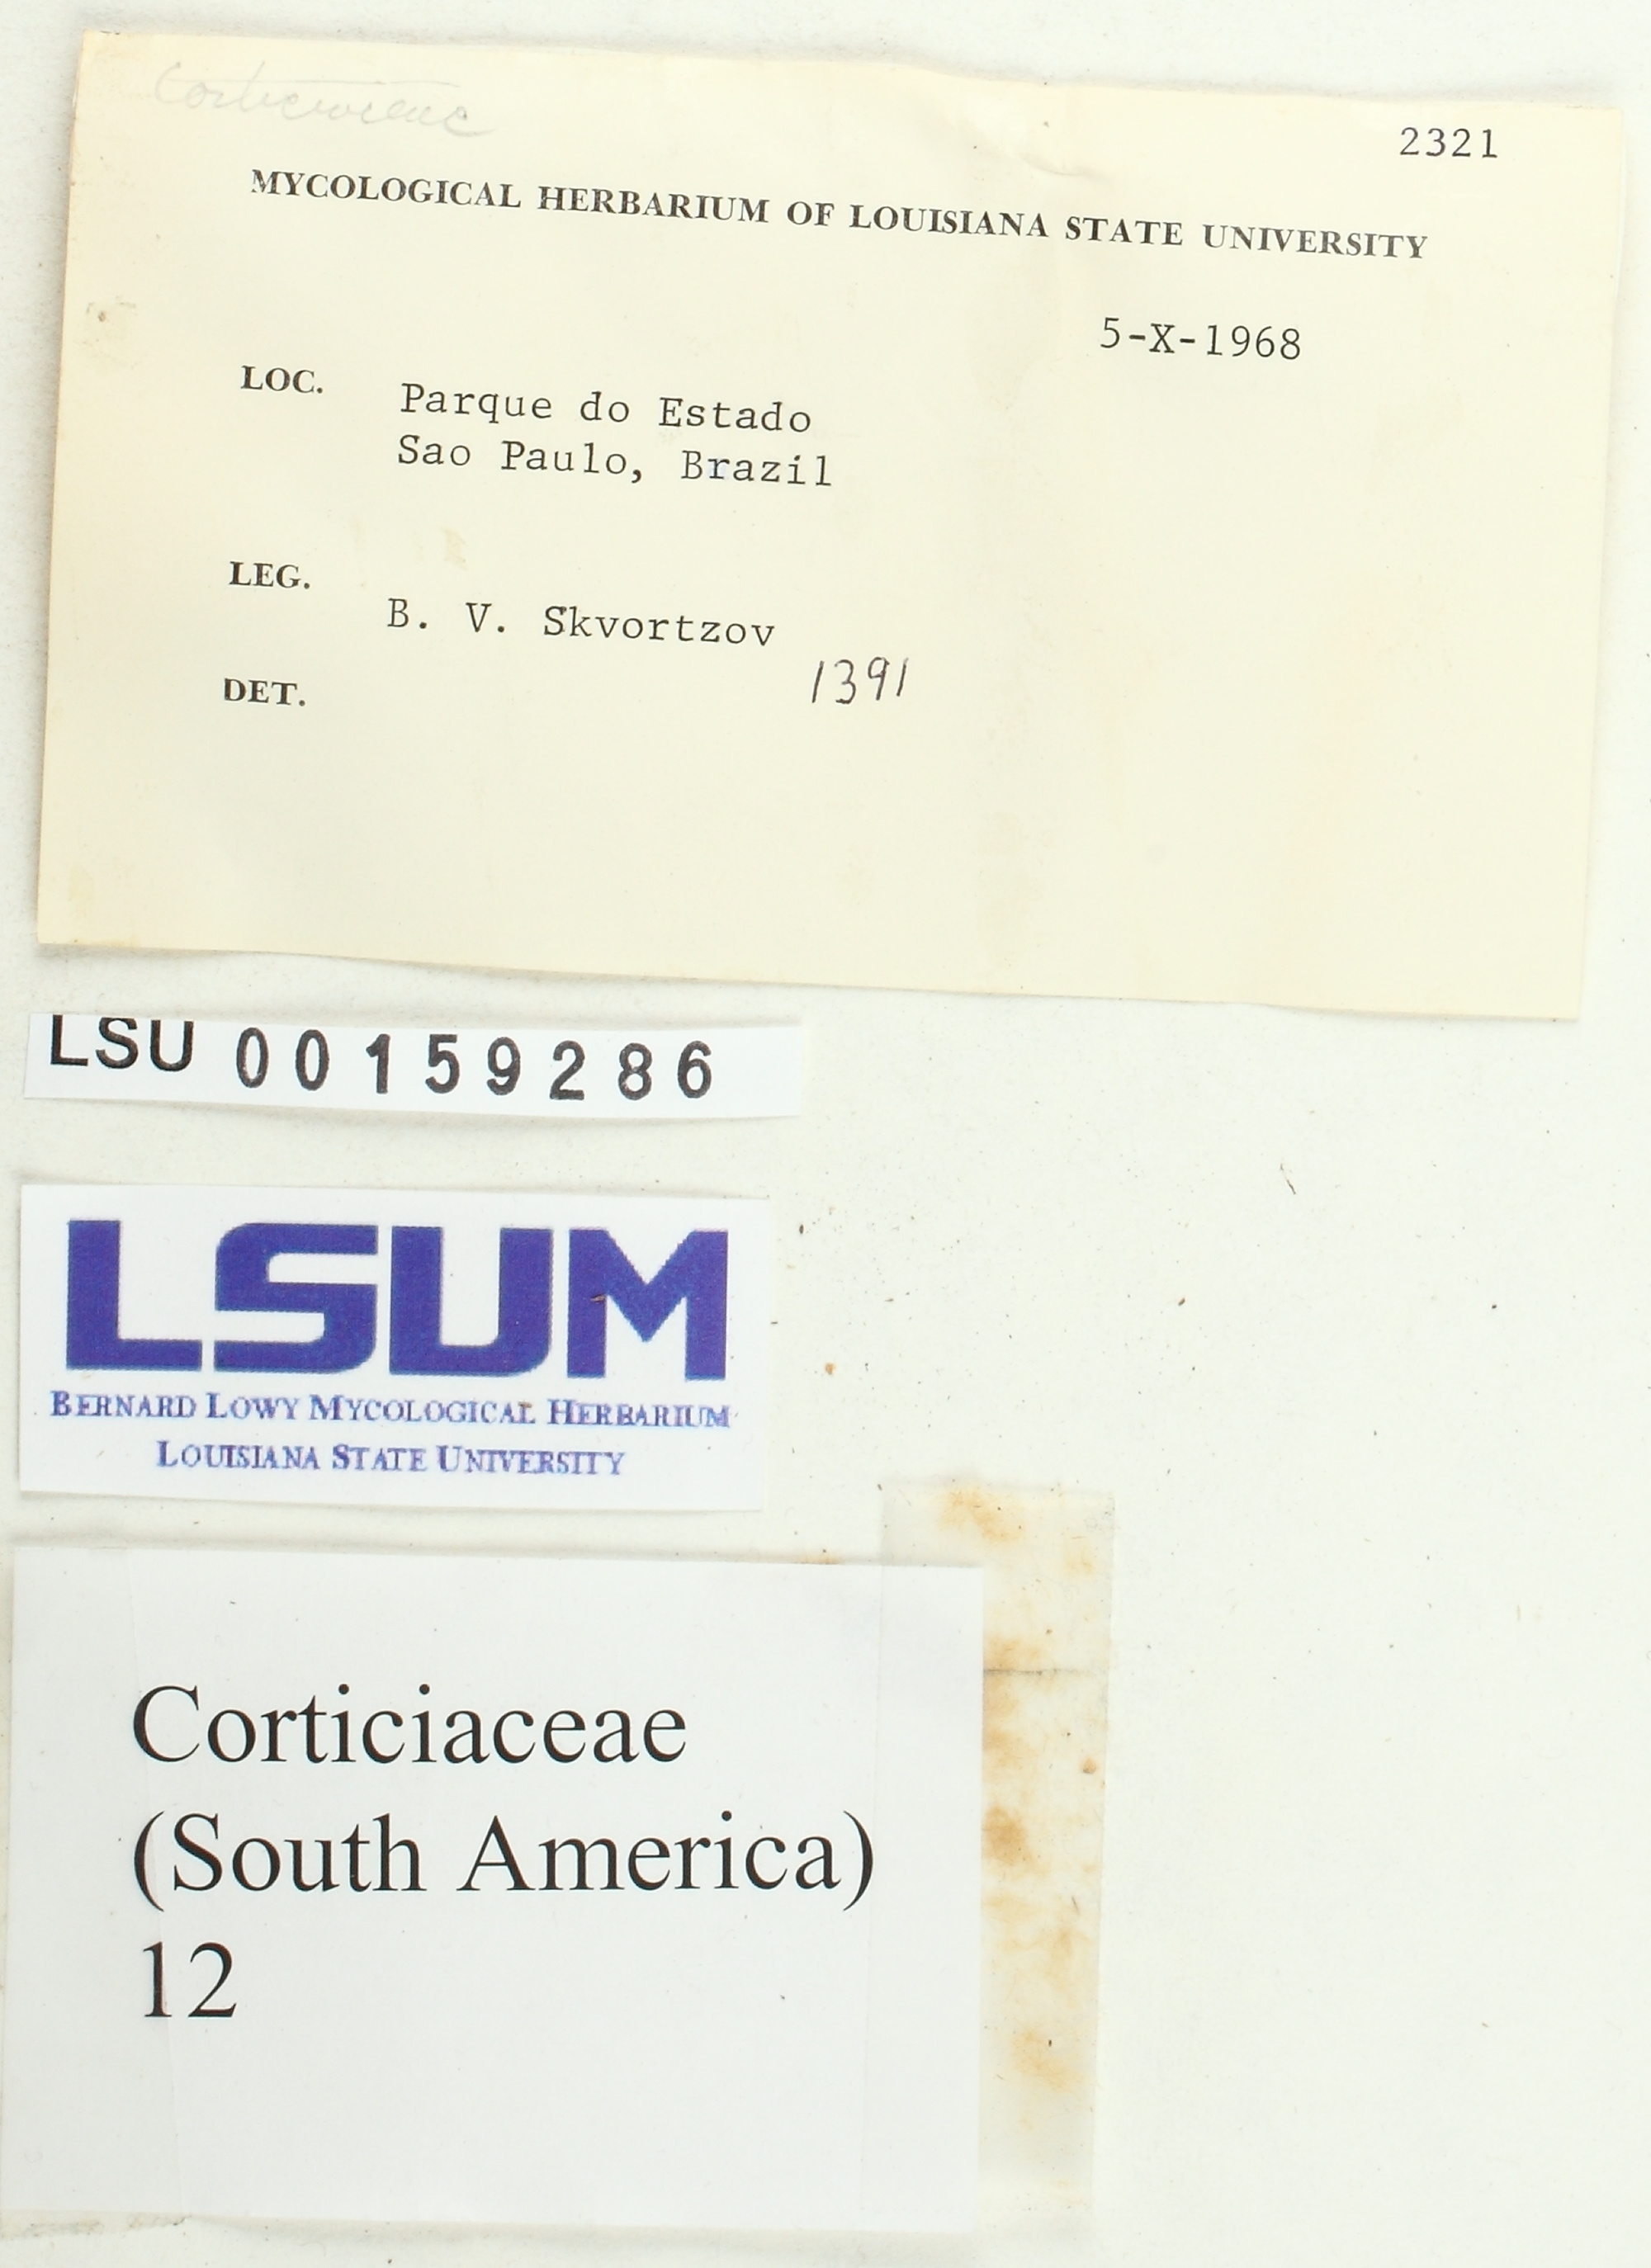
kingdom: Fungi
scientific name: Fungi
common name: Fungi
